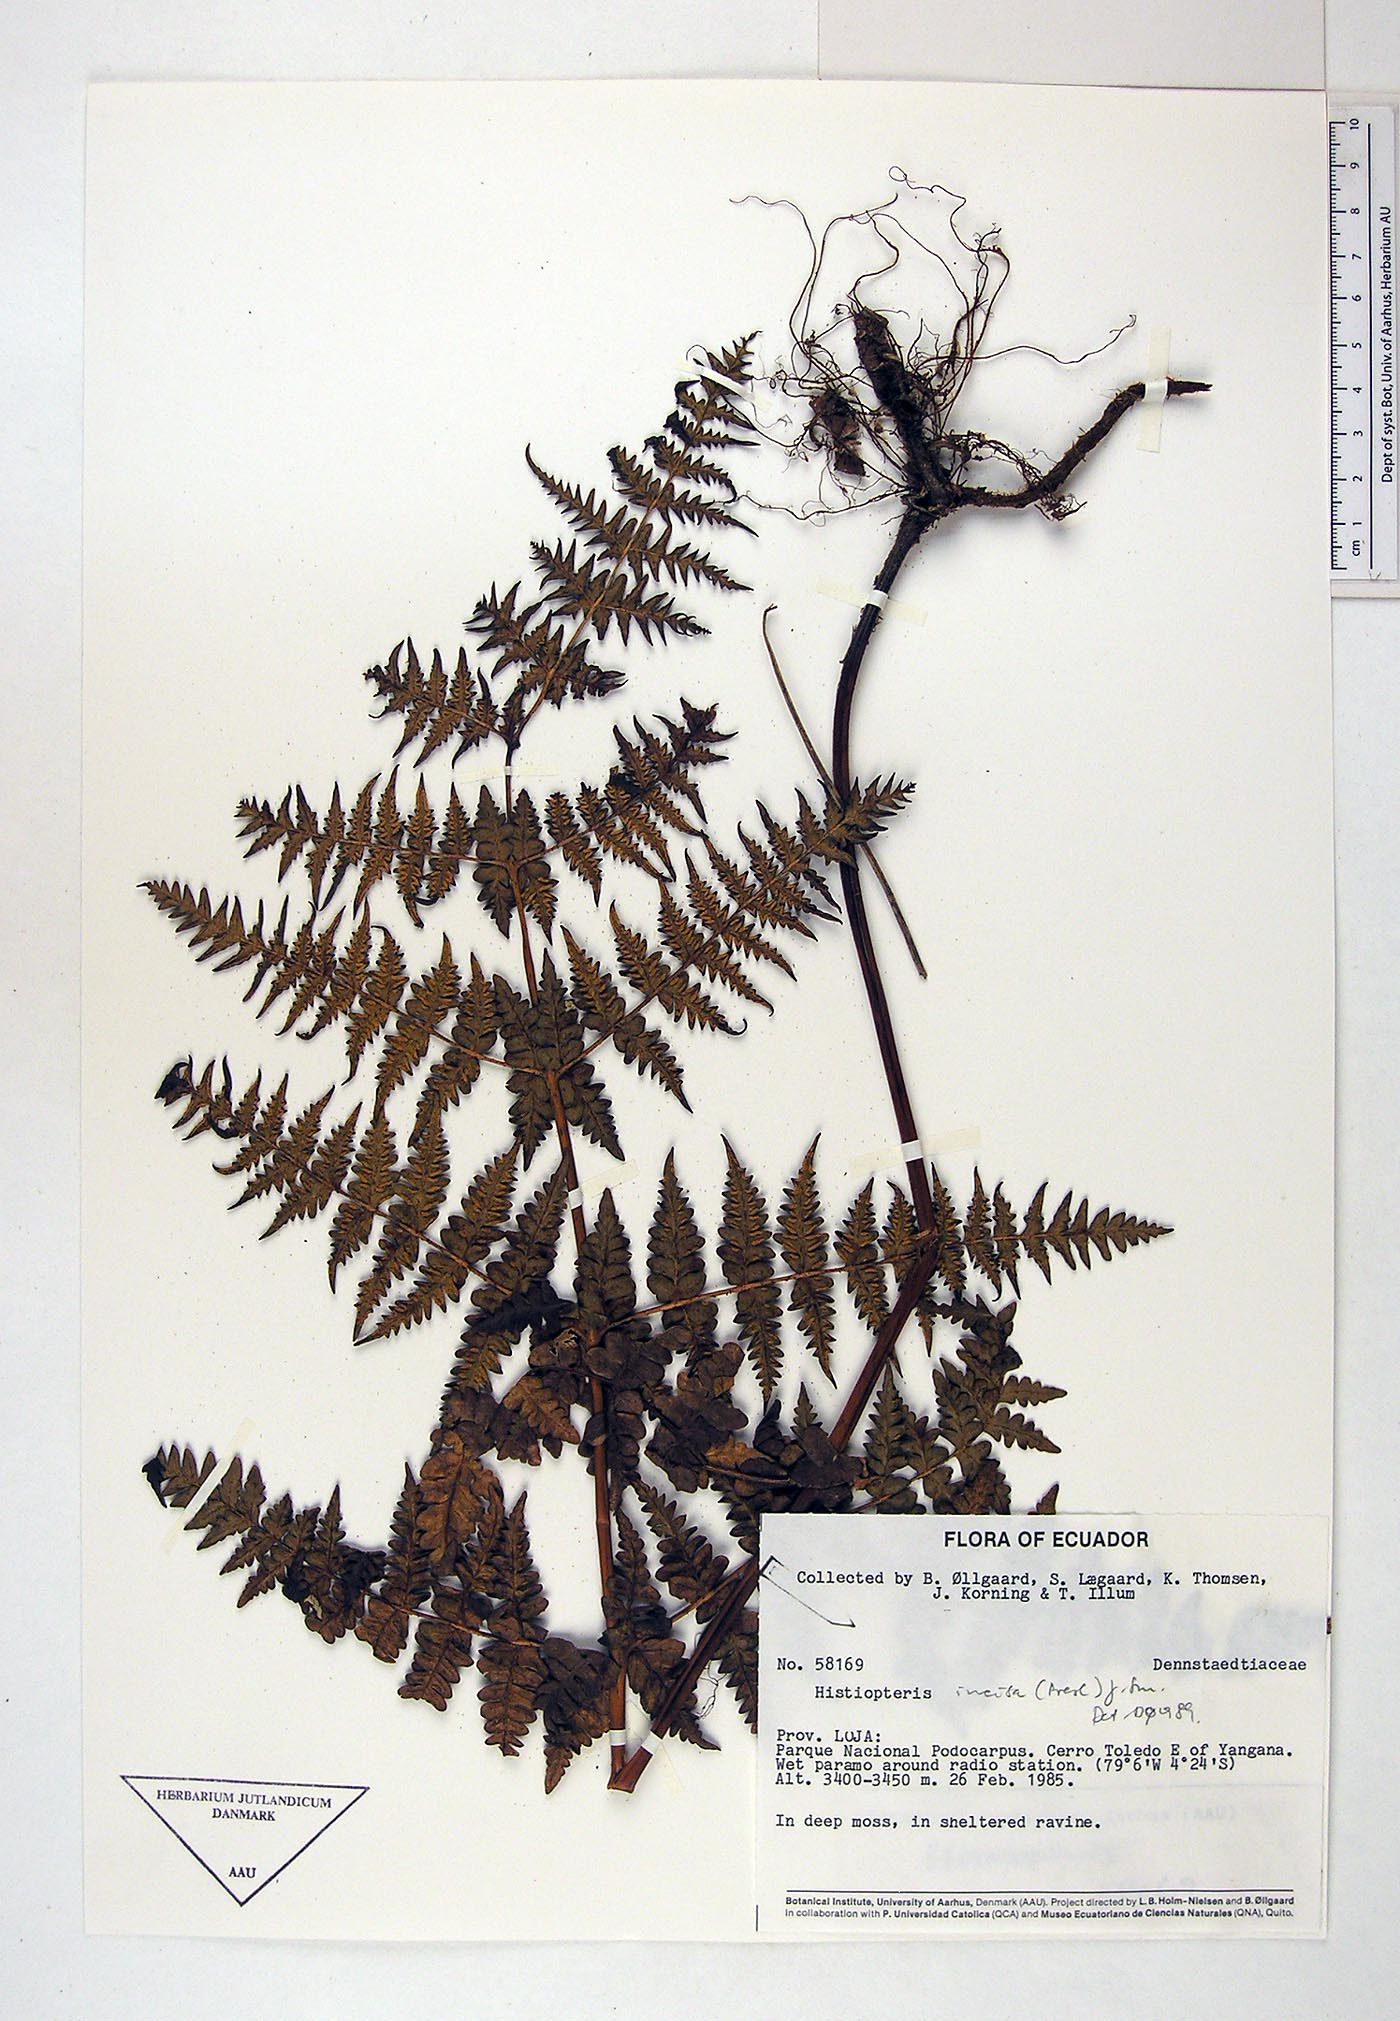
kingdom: Plantae
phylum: Tracheophyta
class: Polypodiopsida
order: Polypodiales
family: Dennstaedtiaceae
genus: Histiopteris
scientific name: Histiopteris incisa
